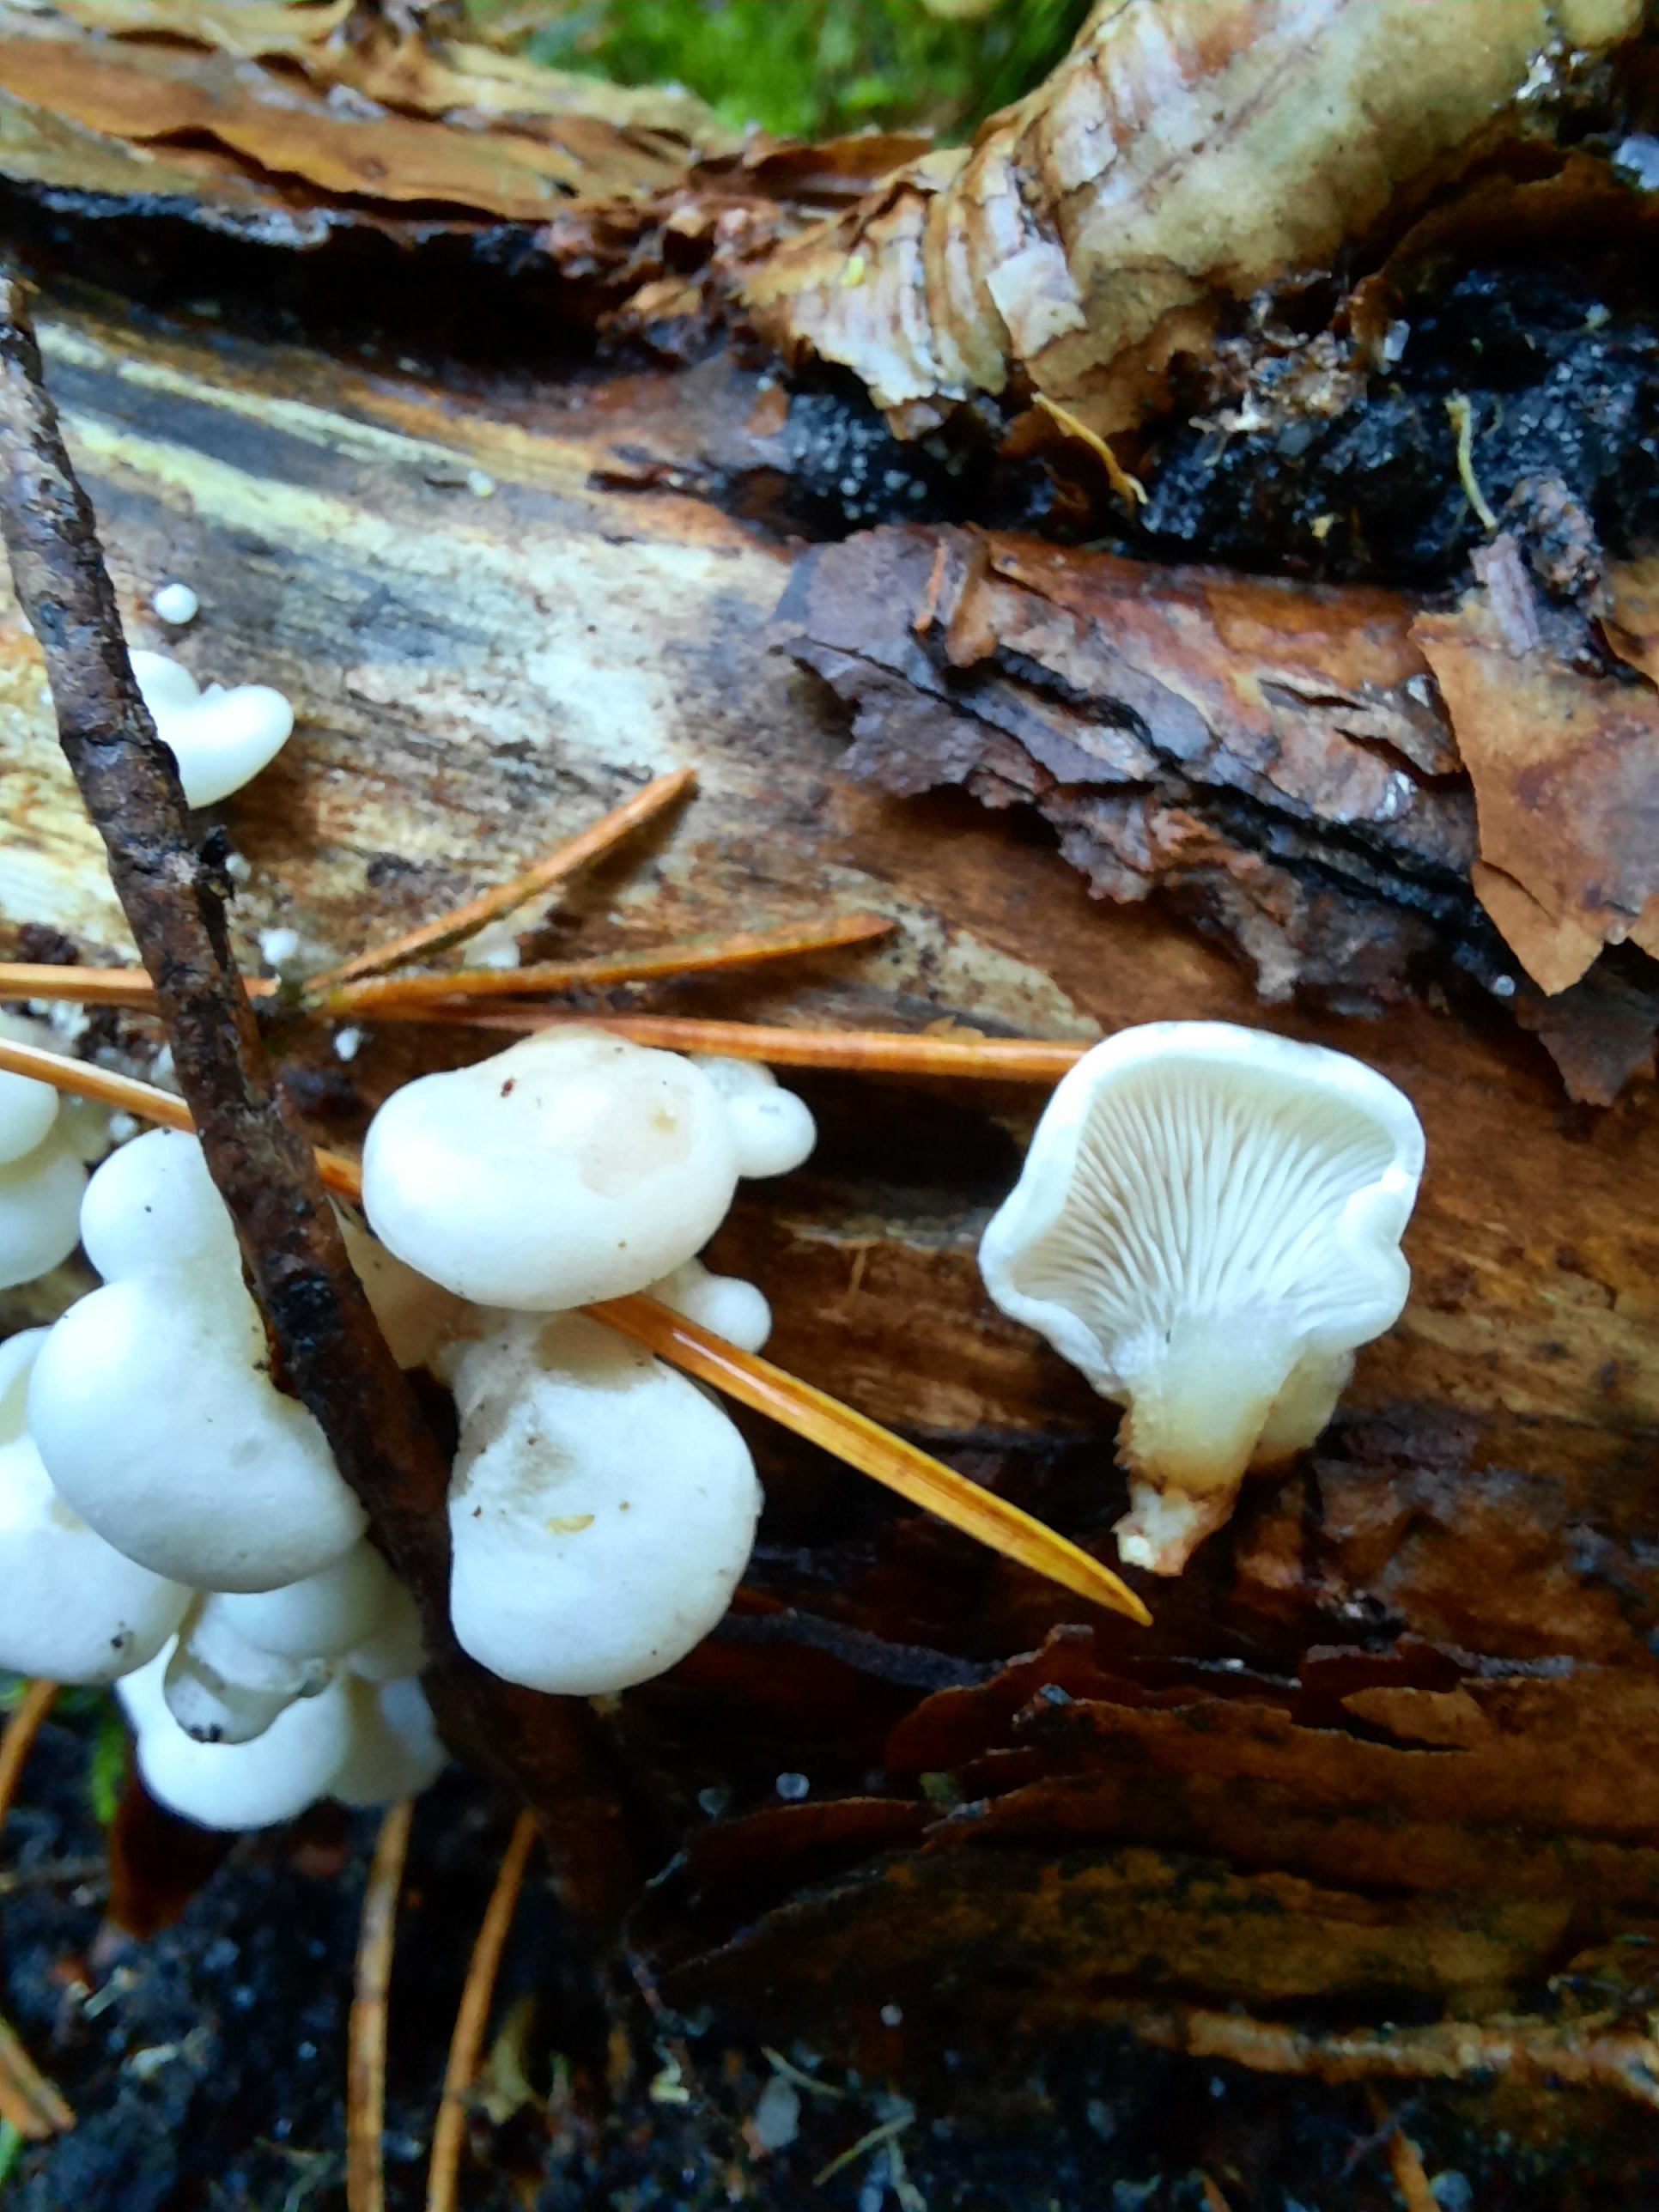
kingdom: Fungi
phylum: Basidiomycota
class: Agaricomycetes
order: Agaricales
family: Mycenaceae
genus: Panellus
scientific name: Panellus mitis
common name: mild epaulethat
